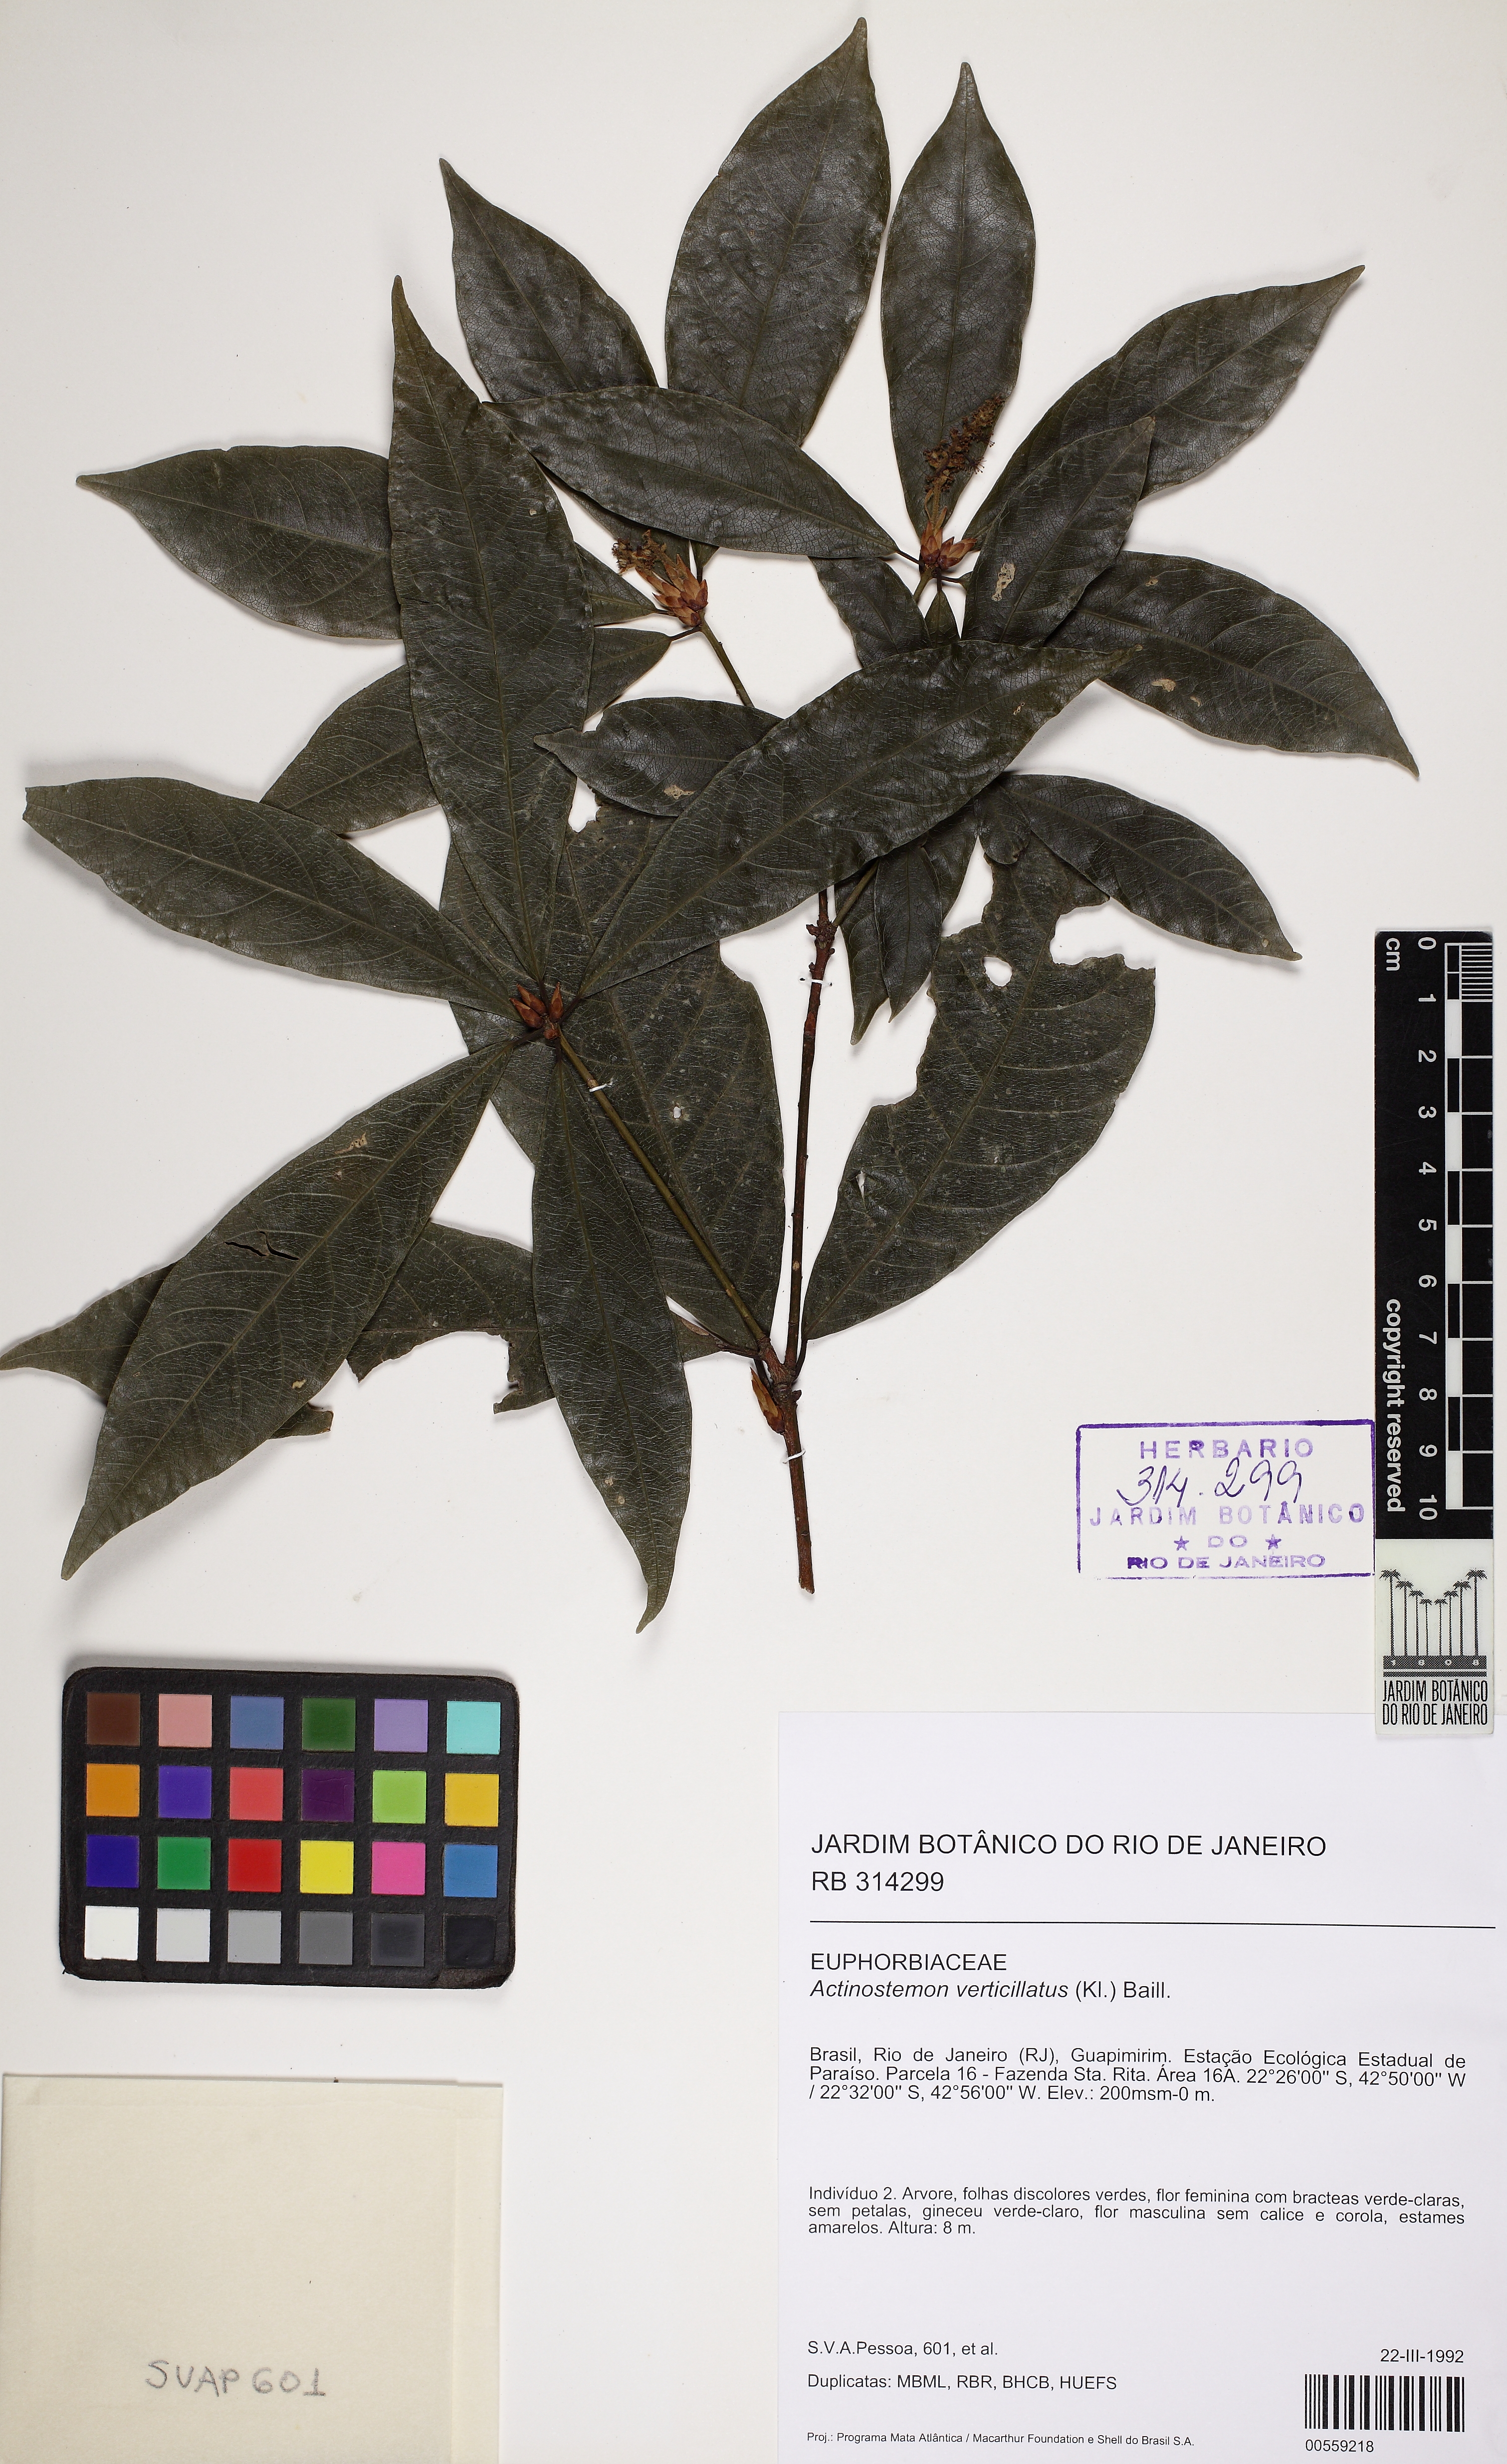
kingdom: Plantae
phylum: Tracheophyta
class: Magnoliopsida
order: Malpighiales
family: Euphorbiaceae
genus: Actinostemon
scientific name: Actinostemon verticillatus
